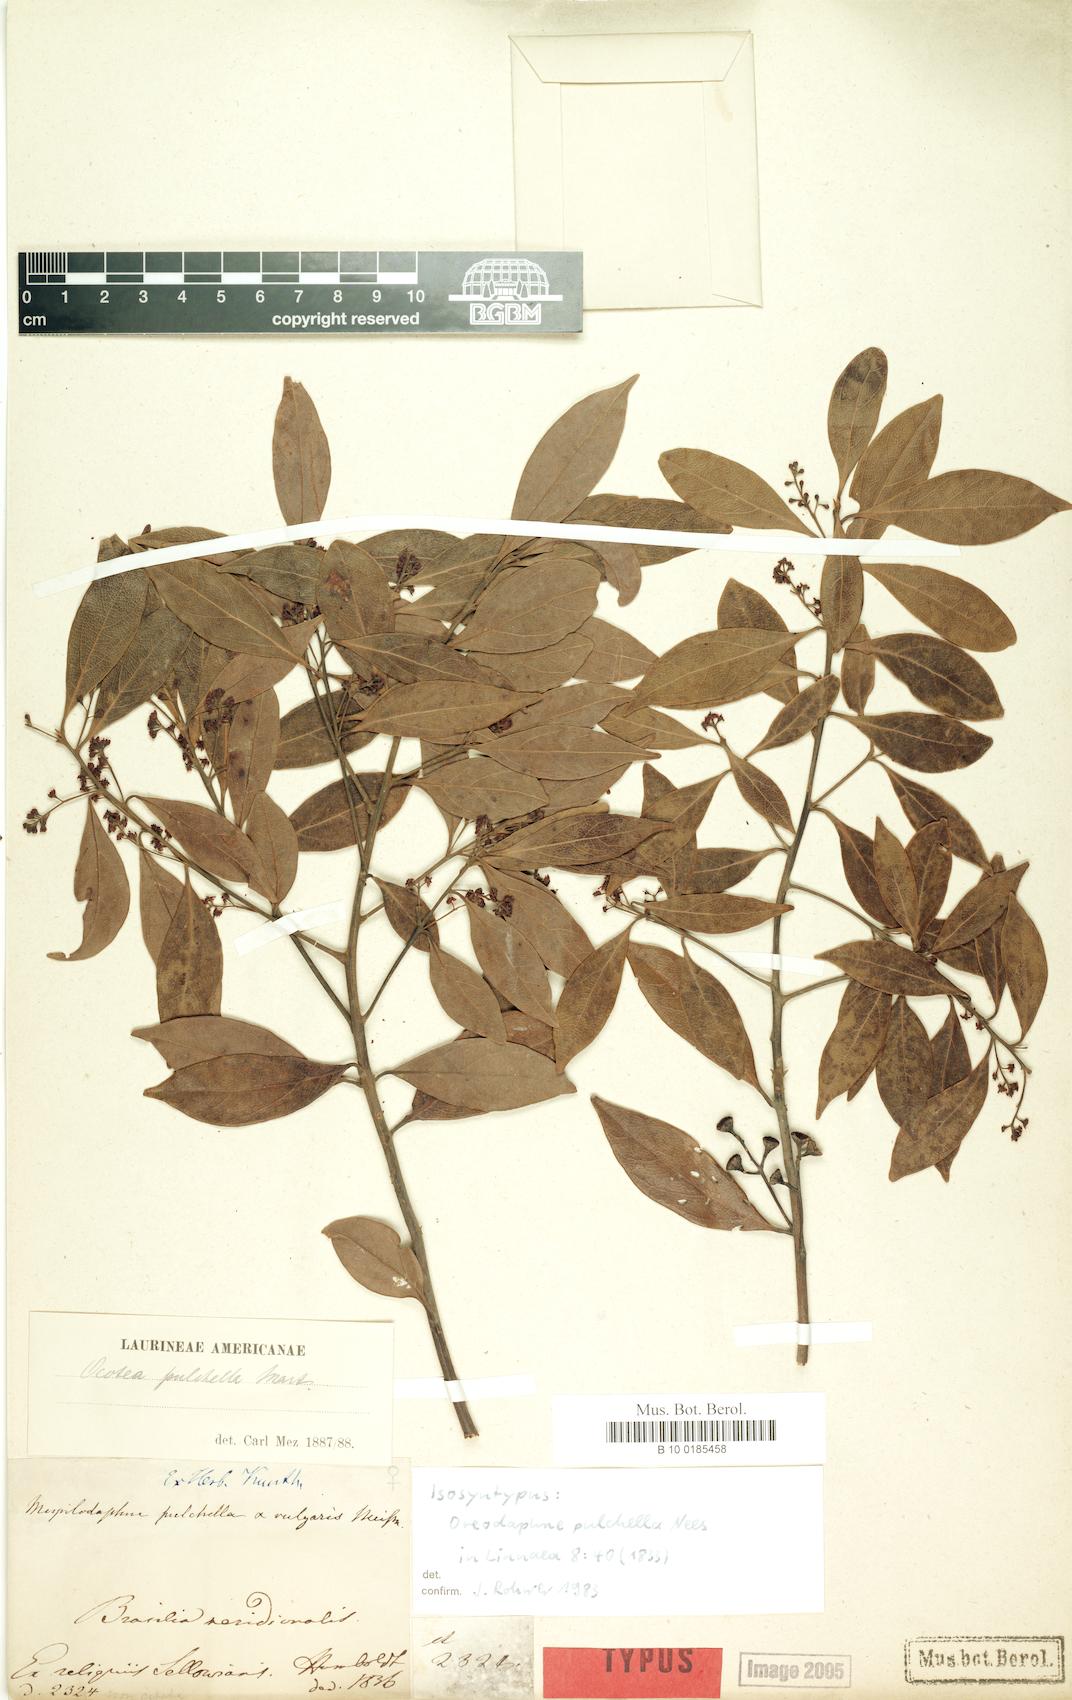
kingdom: Plantae
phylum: Tracheophyta
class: Magnoliopsida
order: Laurales
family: Lauraceae
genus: Mespilodaphne
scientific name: Mespilodaphne pulchella
